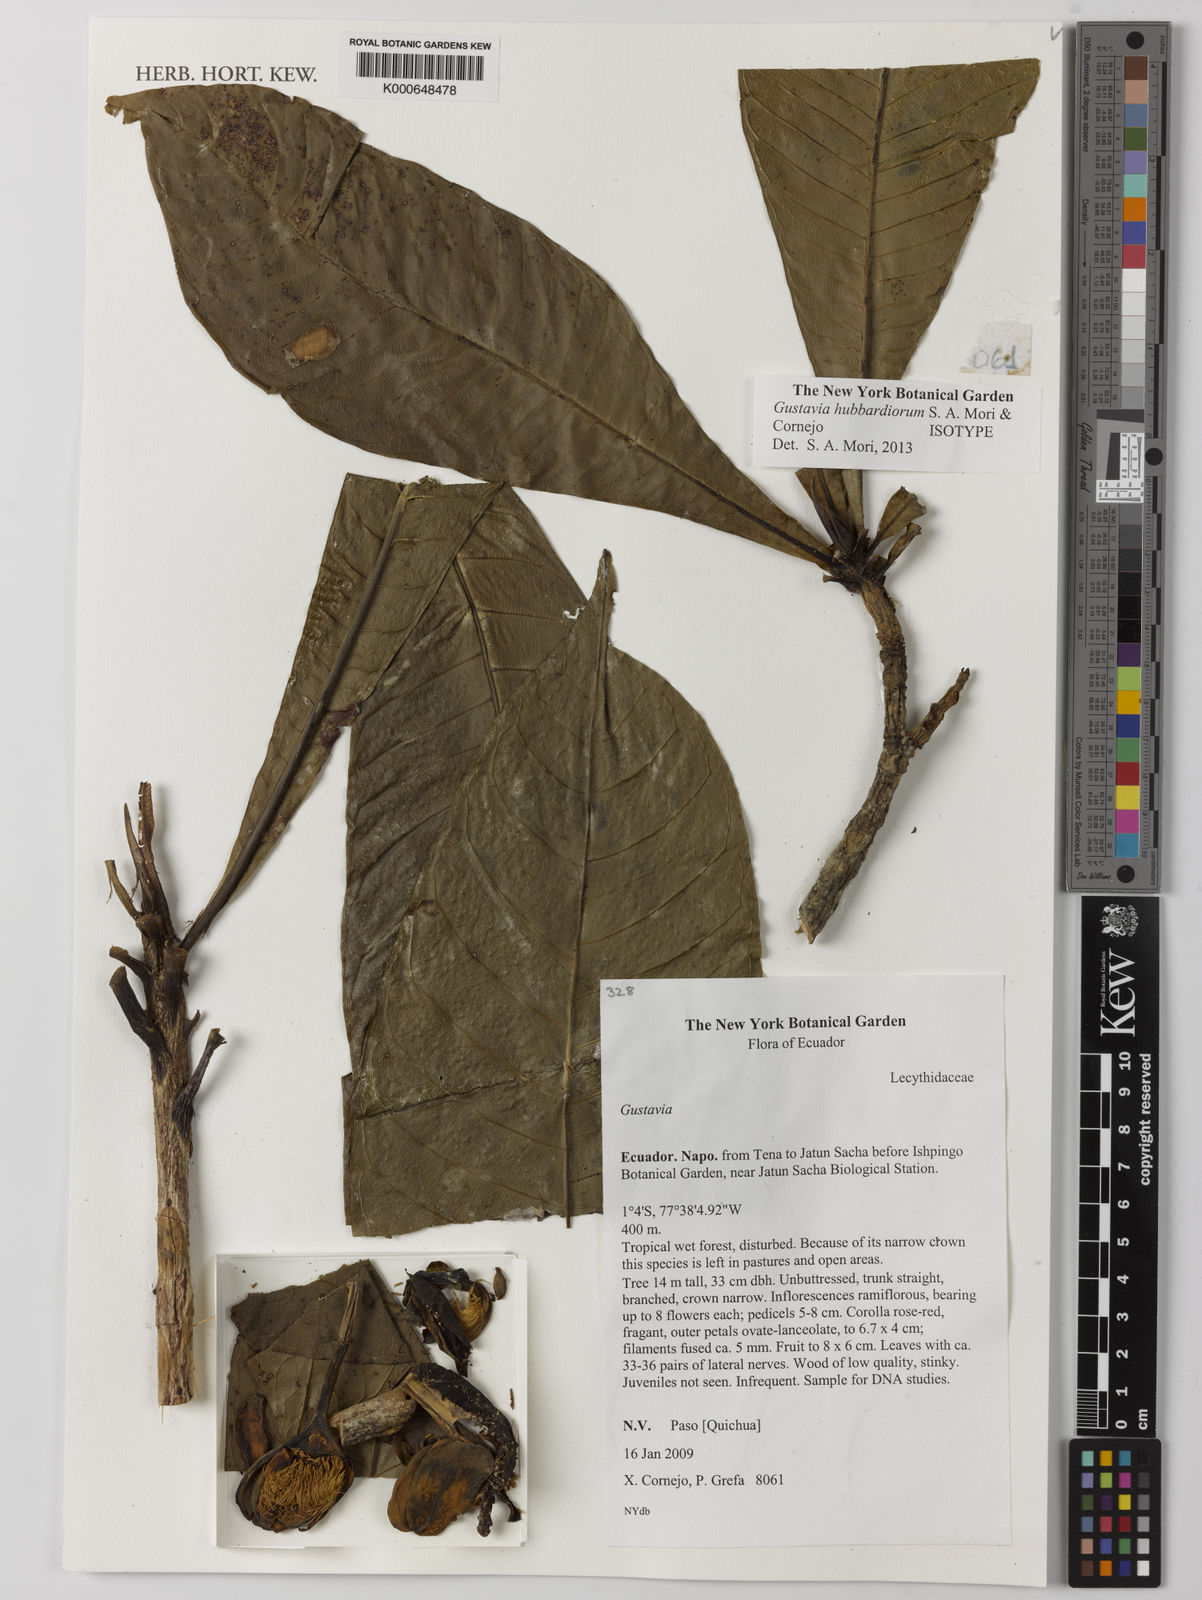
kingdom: Plantae
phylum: Tracheophyta
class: Magnoliopsida
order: Ericales
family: Lecythidaceae
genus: Gustavia
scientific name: Gustavia hubbardiorum
